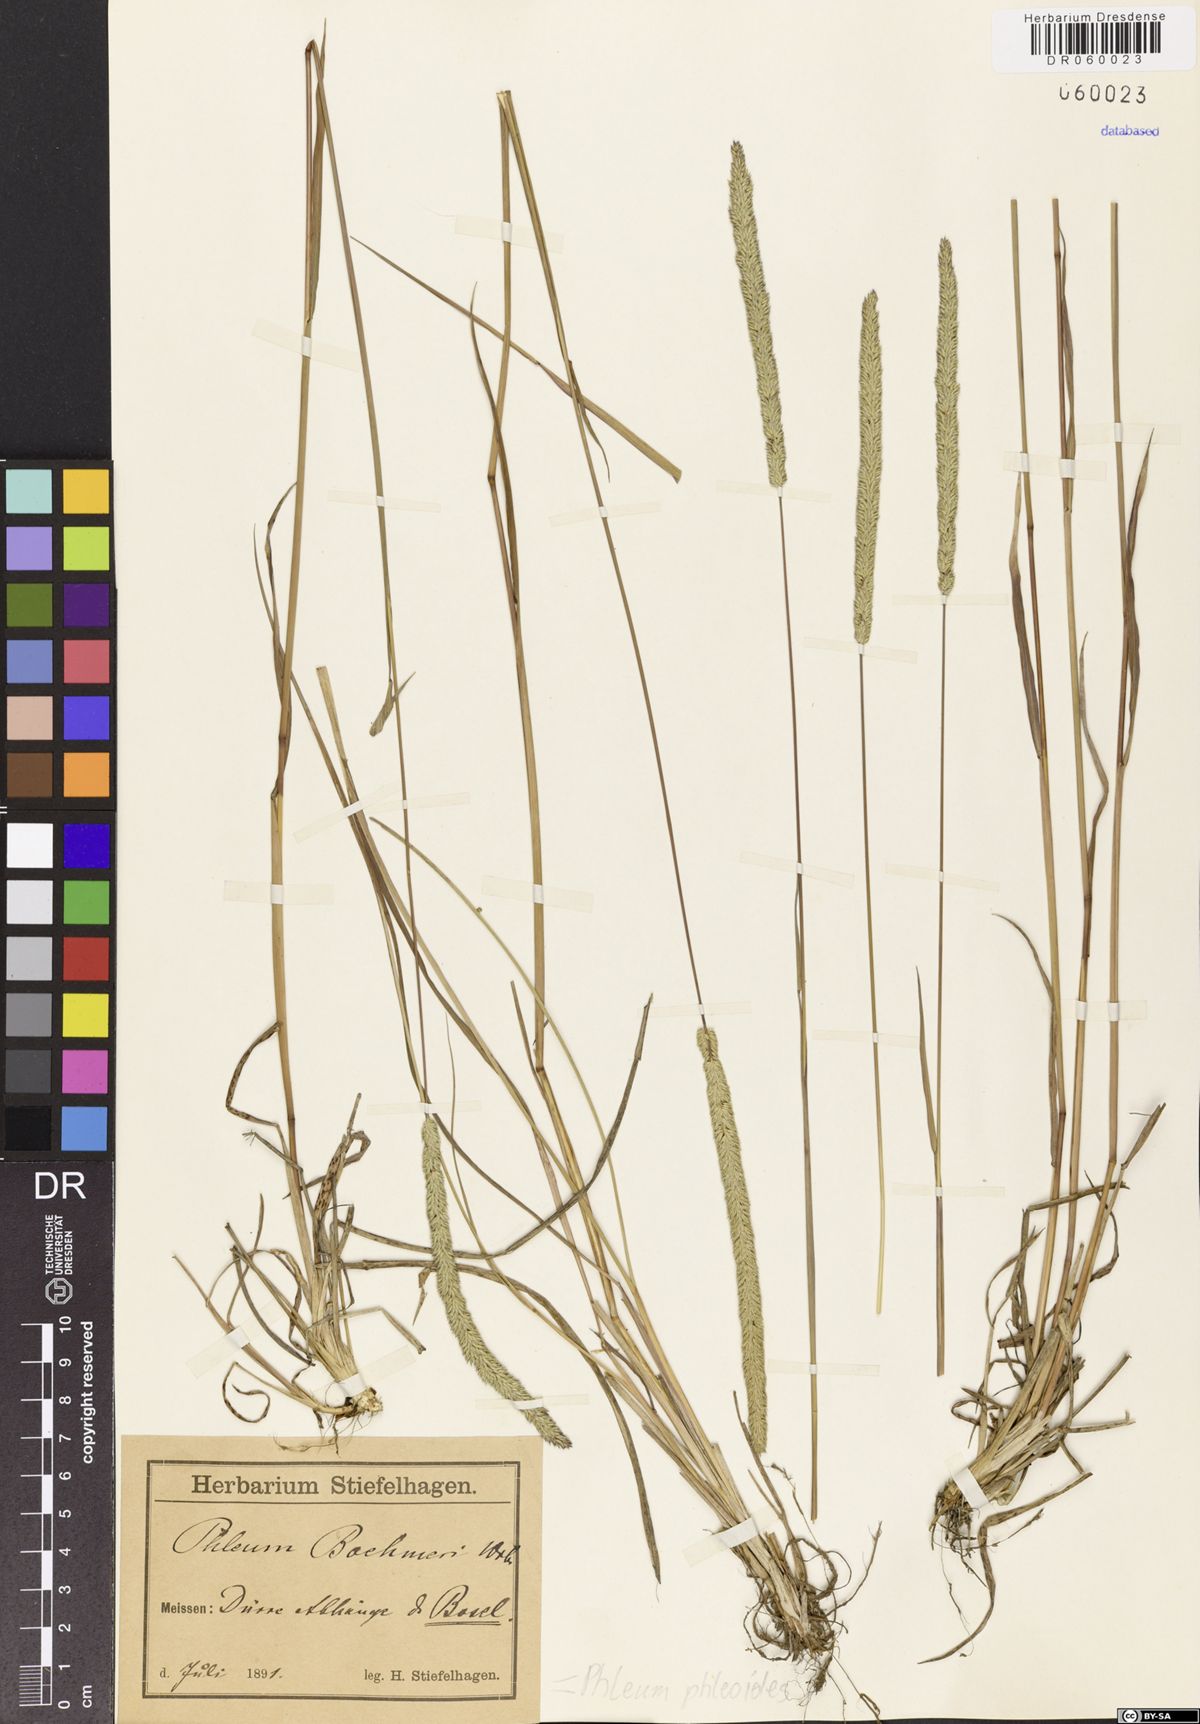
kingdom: Plantae
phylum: Tracheophyta
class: Liliopsida
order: Poales
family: Poaceae
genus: Phleum
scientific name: Phleum phleoides
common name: Purple-stem cat's-tail
